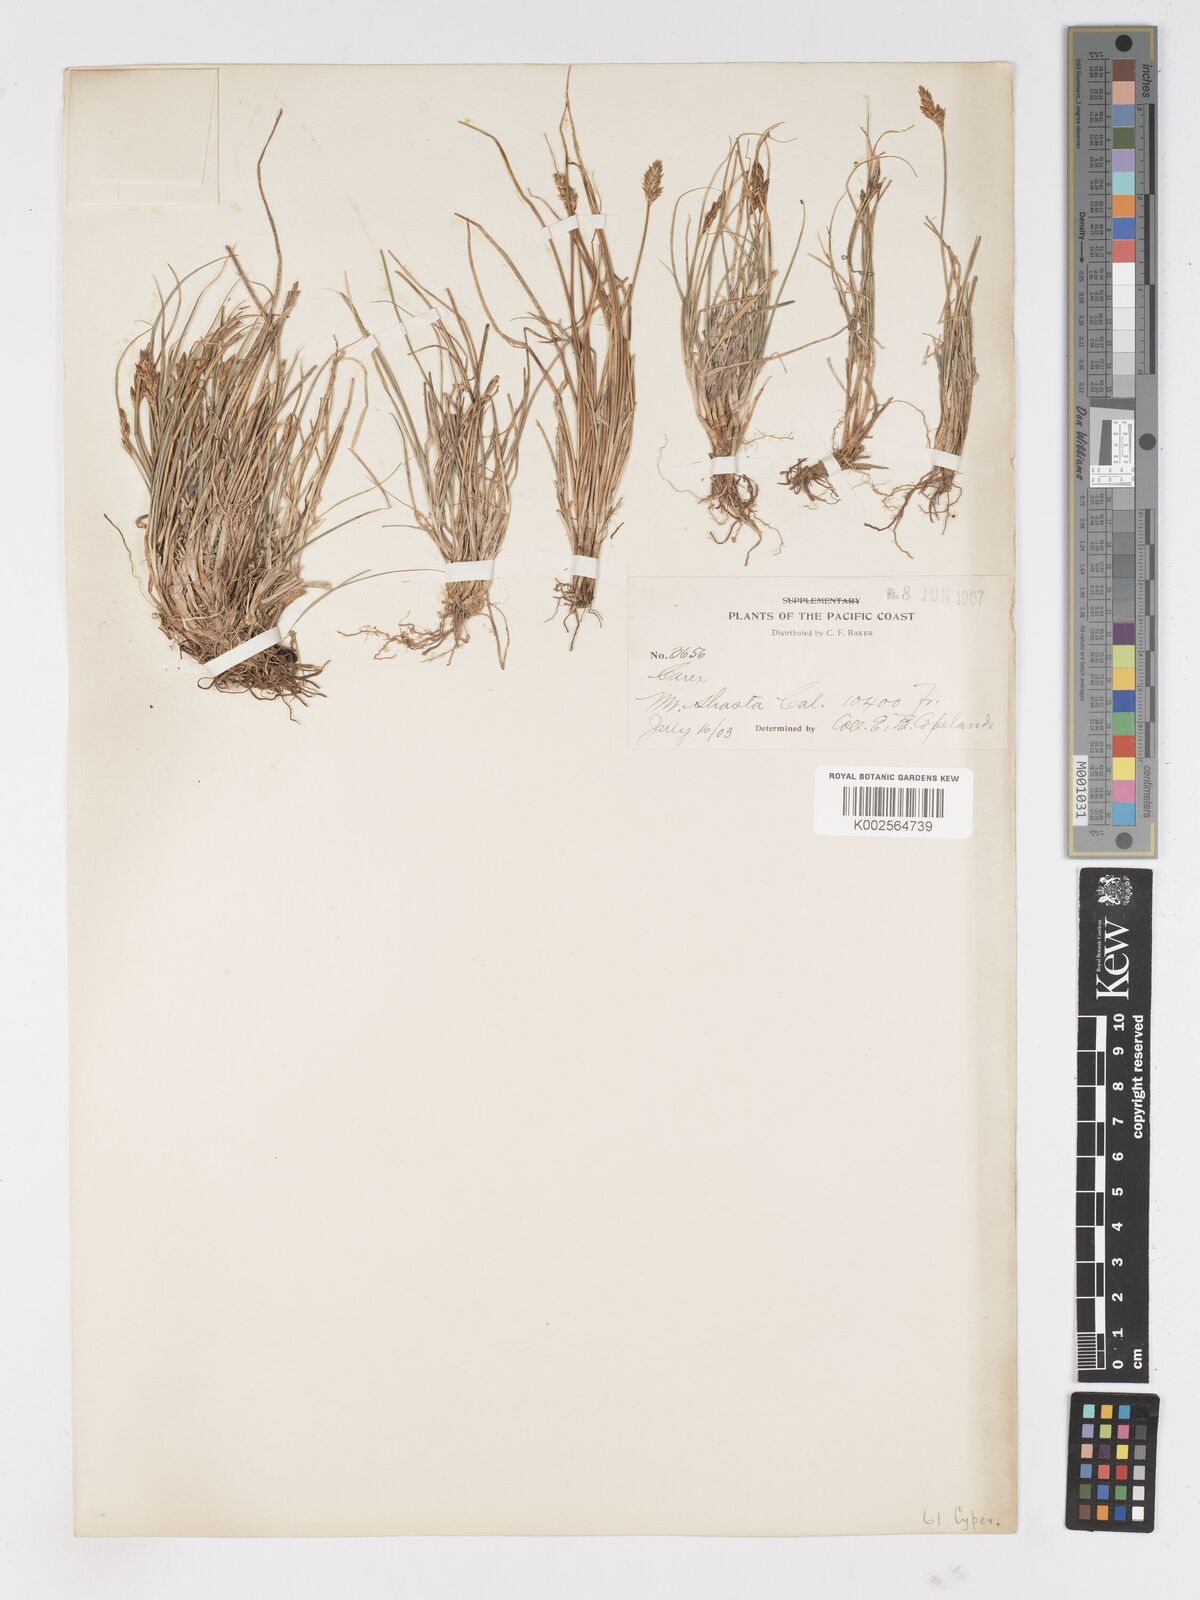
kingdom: Plantae
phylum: Tracheophyta
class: Liliopsida
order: Poales
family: Cyperaceae
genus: Carex
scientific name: Carex
